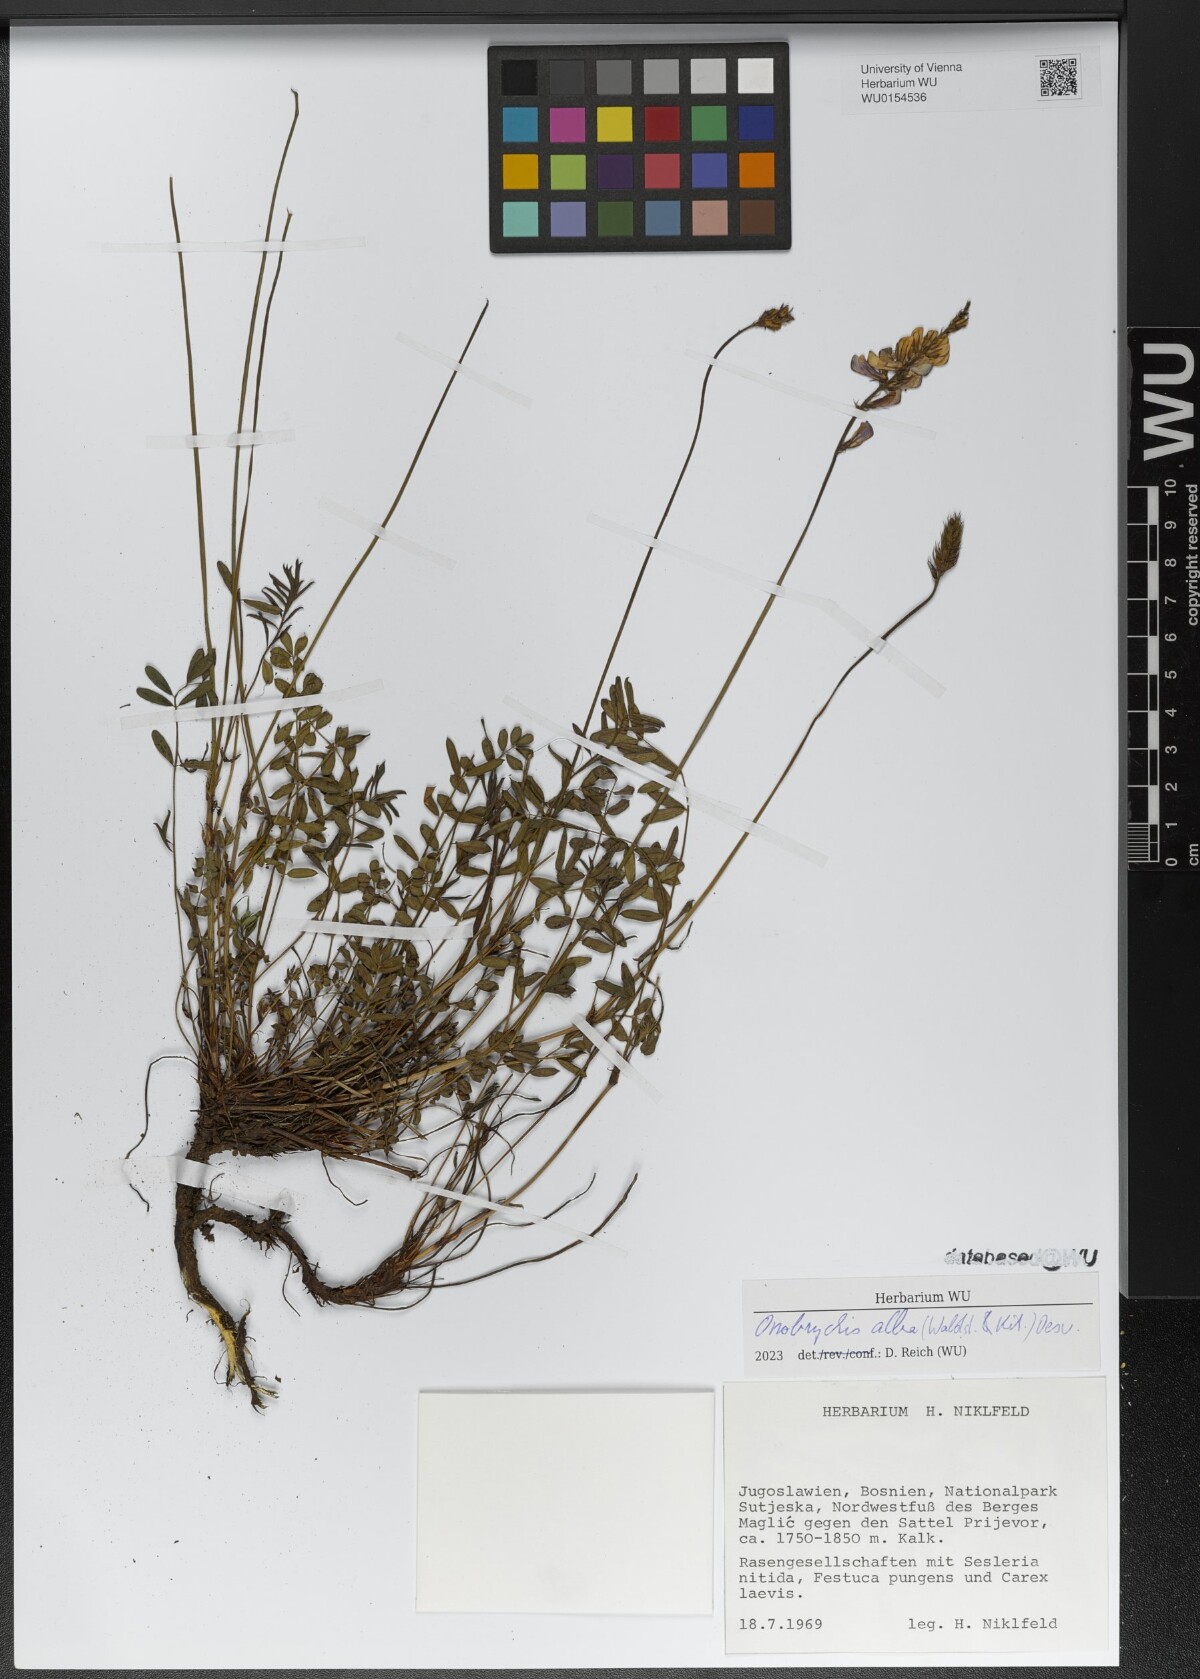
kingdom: Plantae
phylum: Tracheophyta
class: Magnoliopsida
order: Fabales
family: Fabaceae
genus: Onobrychis
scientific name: Onobrychis alba
